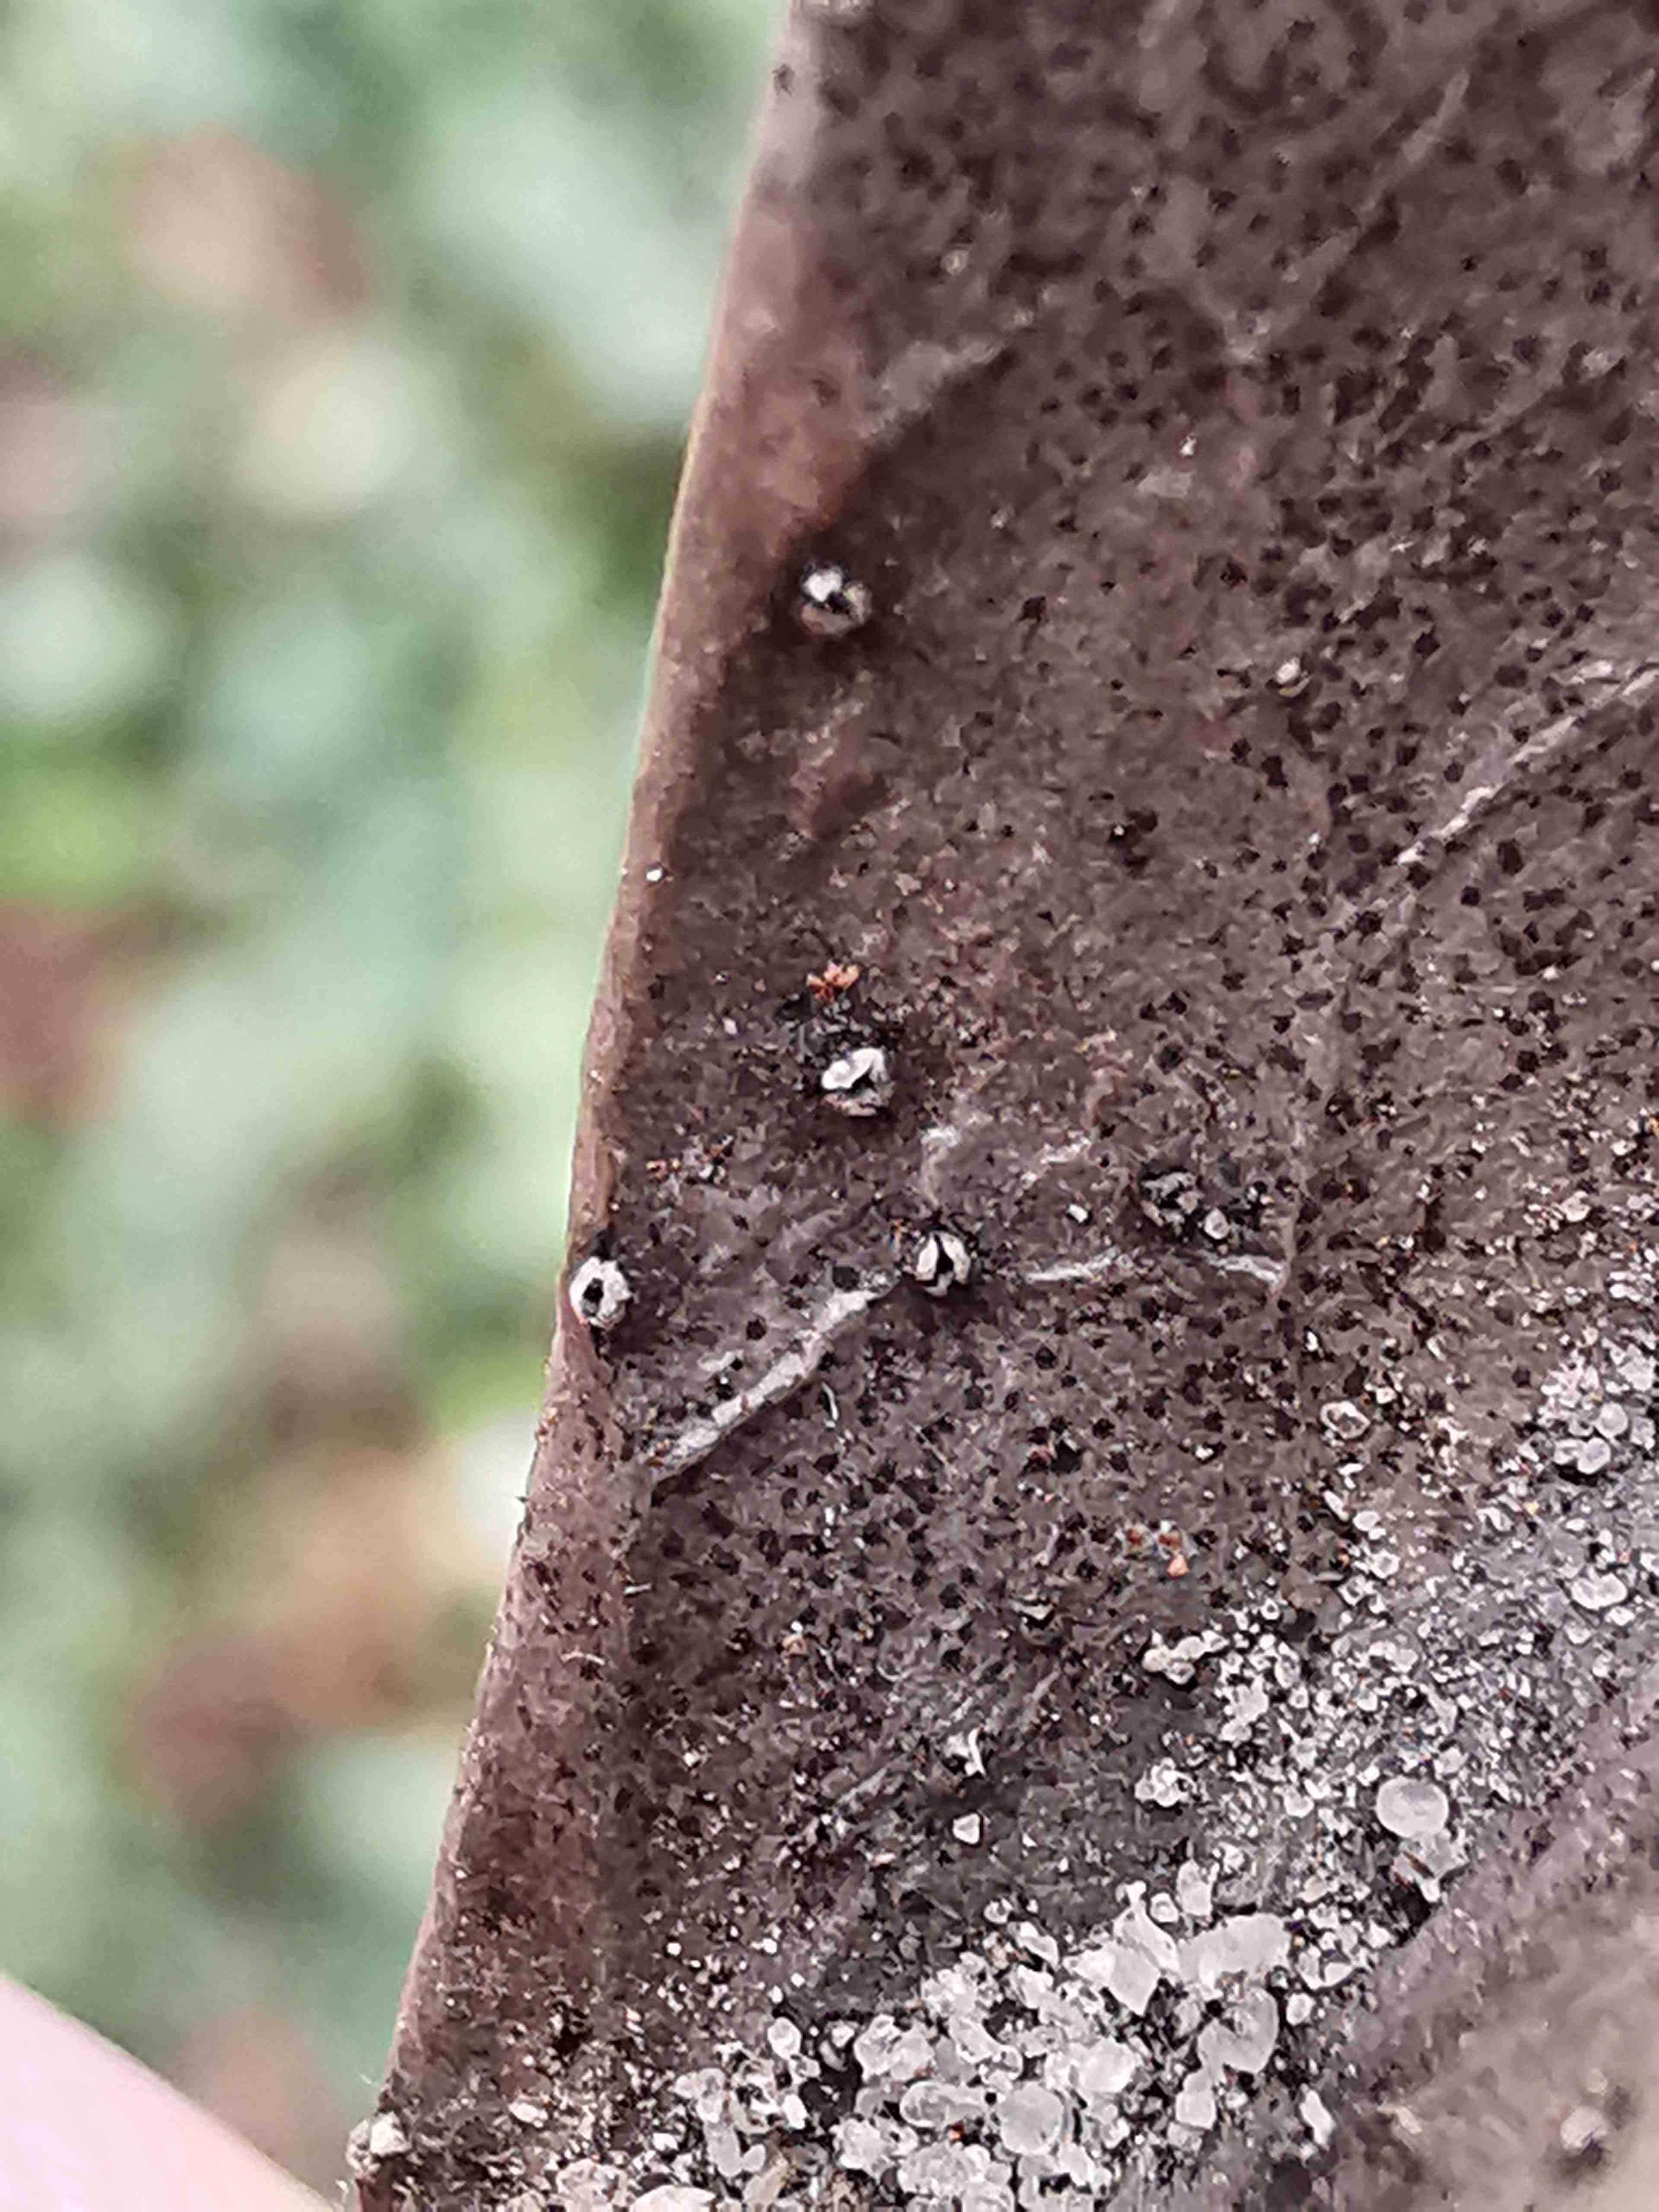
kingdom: Fungi
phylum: Ascomycota
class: Leotiomycetes
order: Phacidiales
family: Phacidiaceae
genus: Phacidium
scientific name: Phacidium lauri
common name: kristtorn-tandskive
